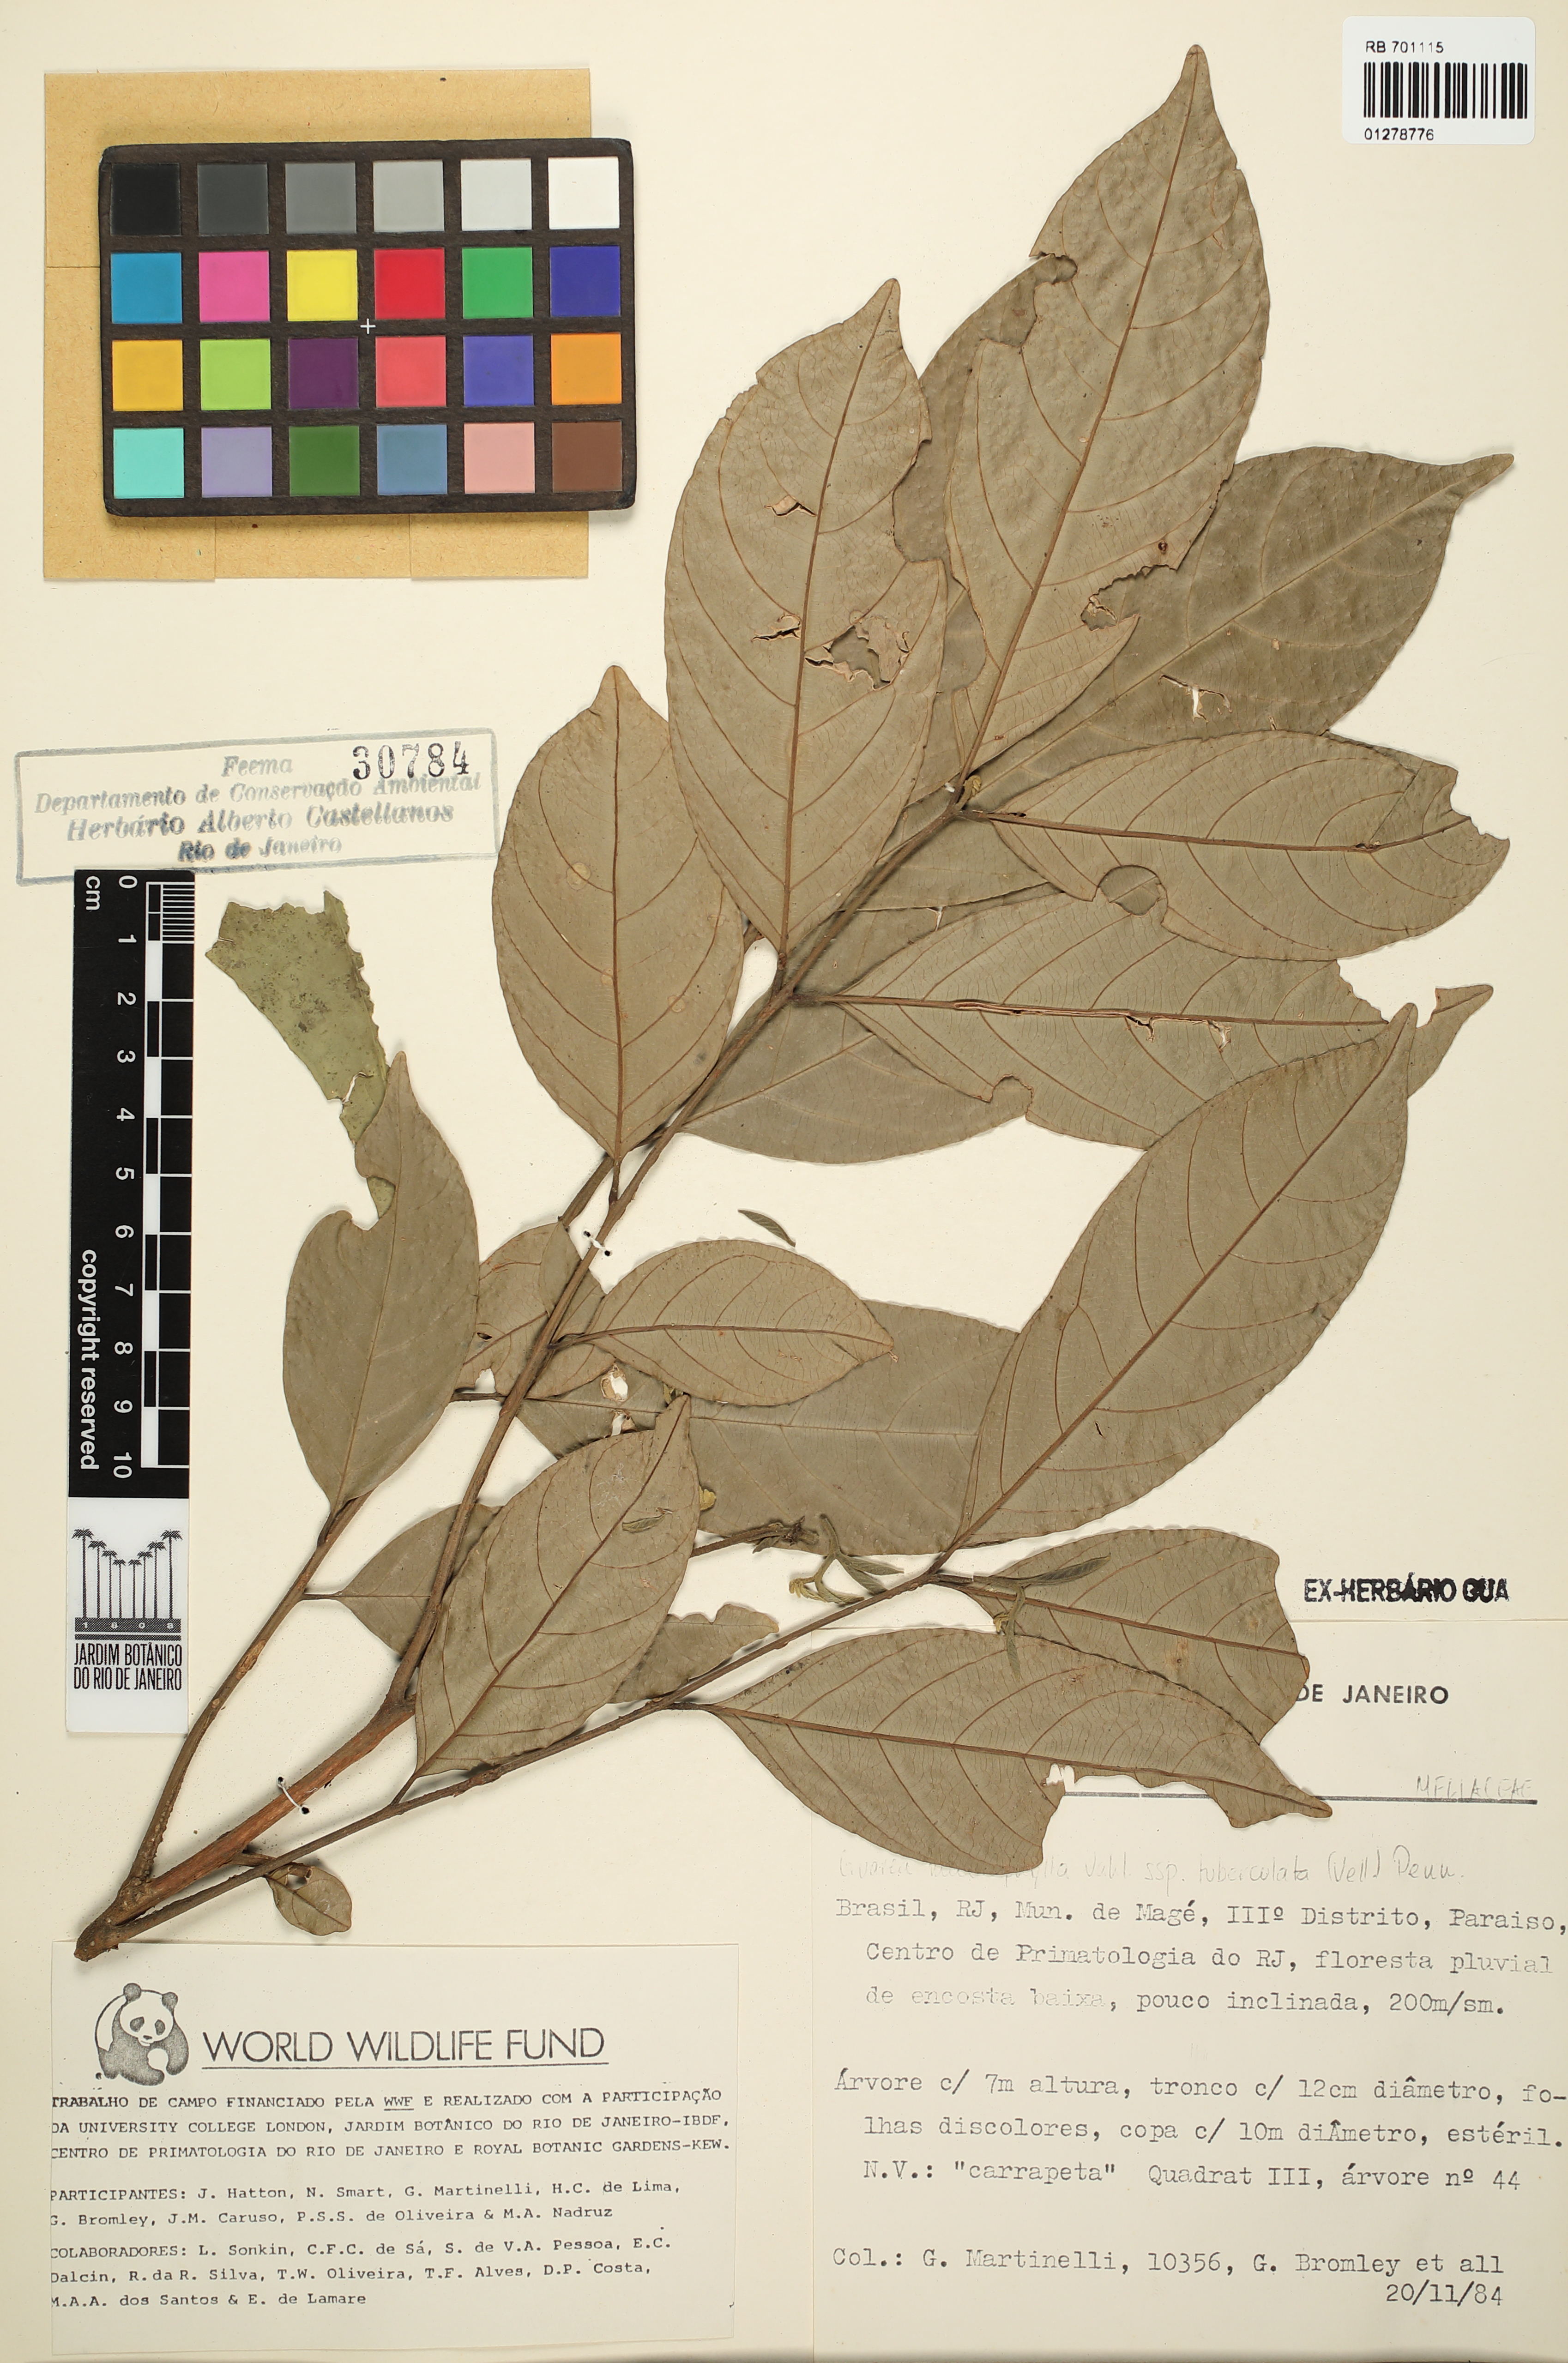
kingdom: Plantae
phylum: Tracheophyta
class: Magnoliopsida
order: Sapindales
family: Meliaceae
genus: Guarea
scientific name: Guarea macrophylla
